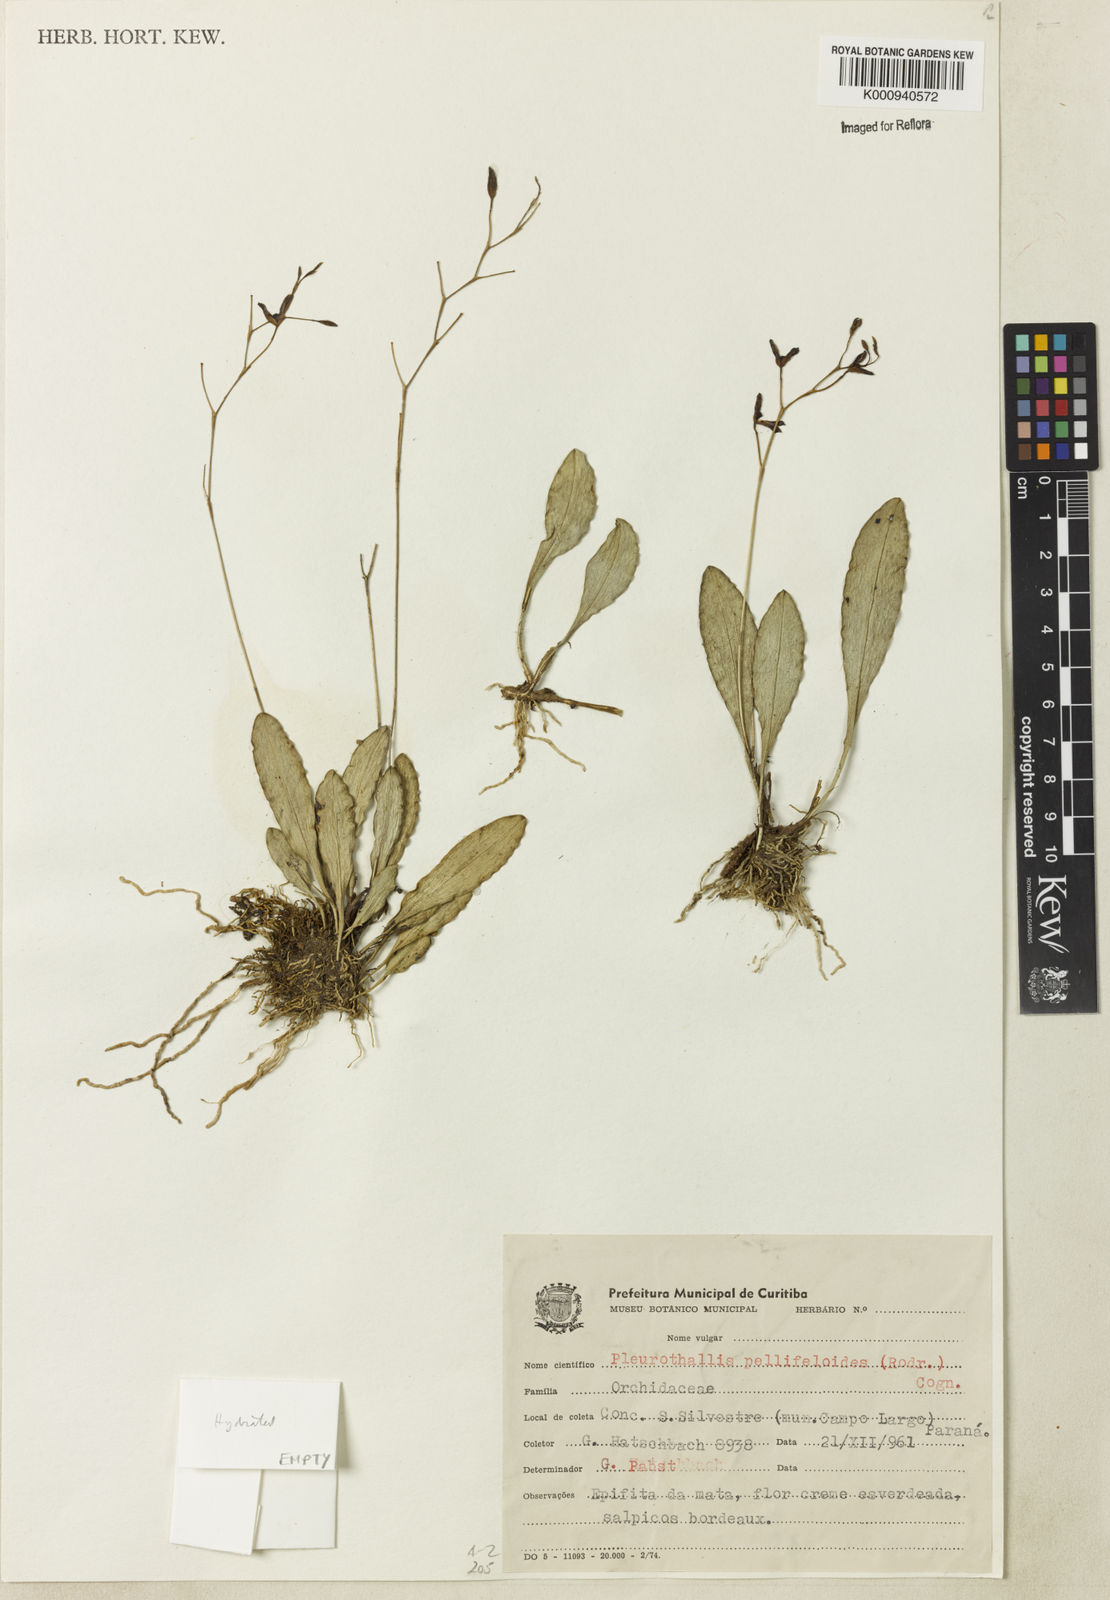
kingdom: Plantae
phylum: Tracheophyta
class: Liliopsida
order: Asparagales
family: Orchidaceae
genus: Pabstiella
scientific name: Pabstiella pellifeloidis
